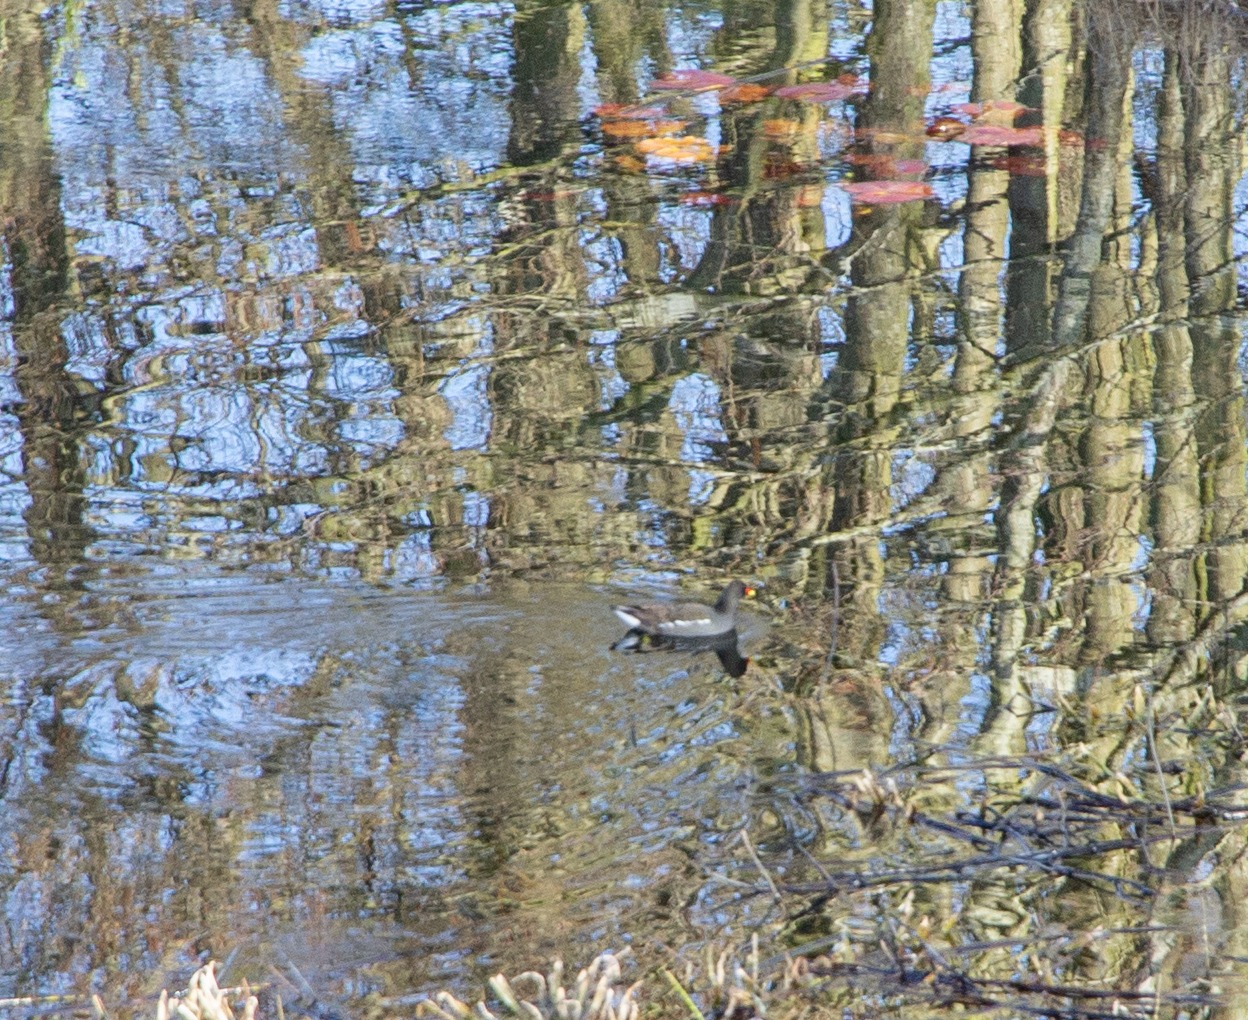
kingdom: Animalia
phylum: Chordata
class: Aves
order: Gruiformes
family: Rallidae
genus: Gallinula
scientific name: Gallinula chloropus
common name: Grønbenet rørhøne
